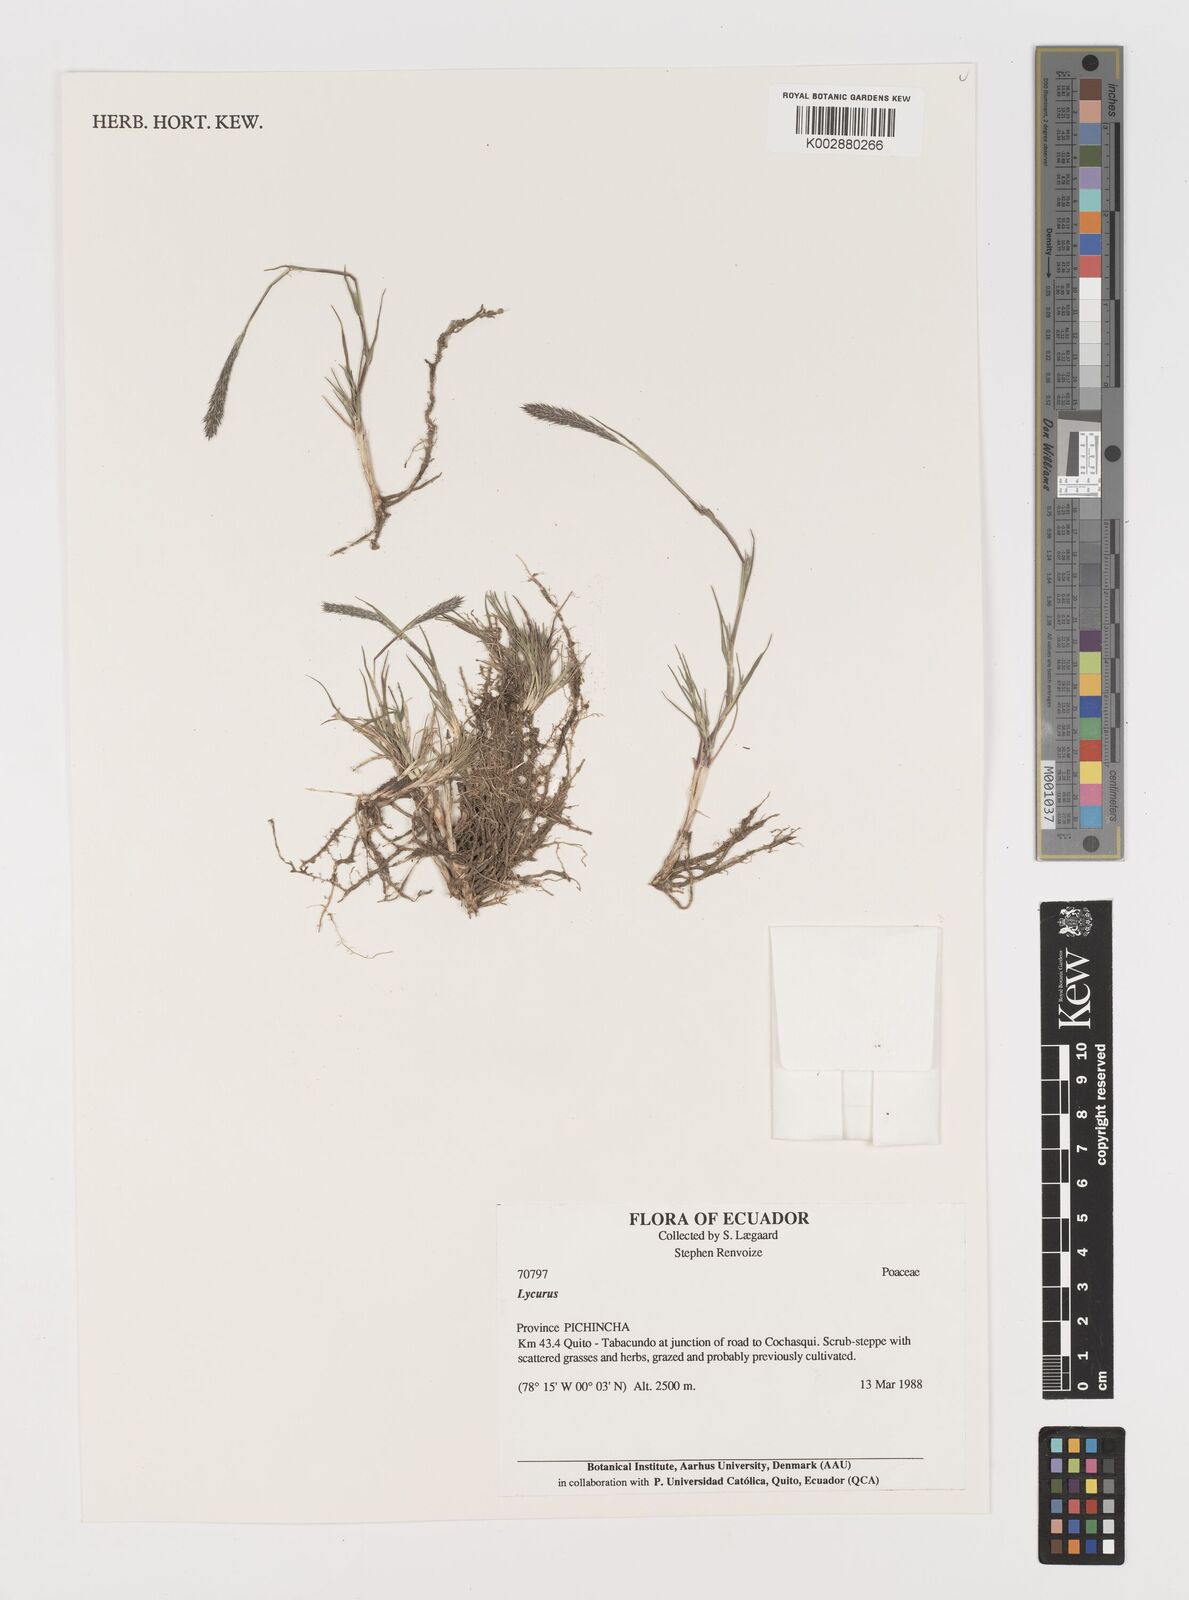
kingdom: Plantae
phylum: Tracheophyta
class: Liliopsida
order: Poales
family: Poaceae
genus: Muhlenbergia
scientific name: Muhlenbergia phalaroides
